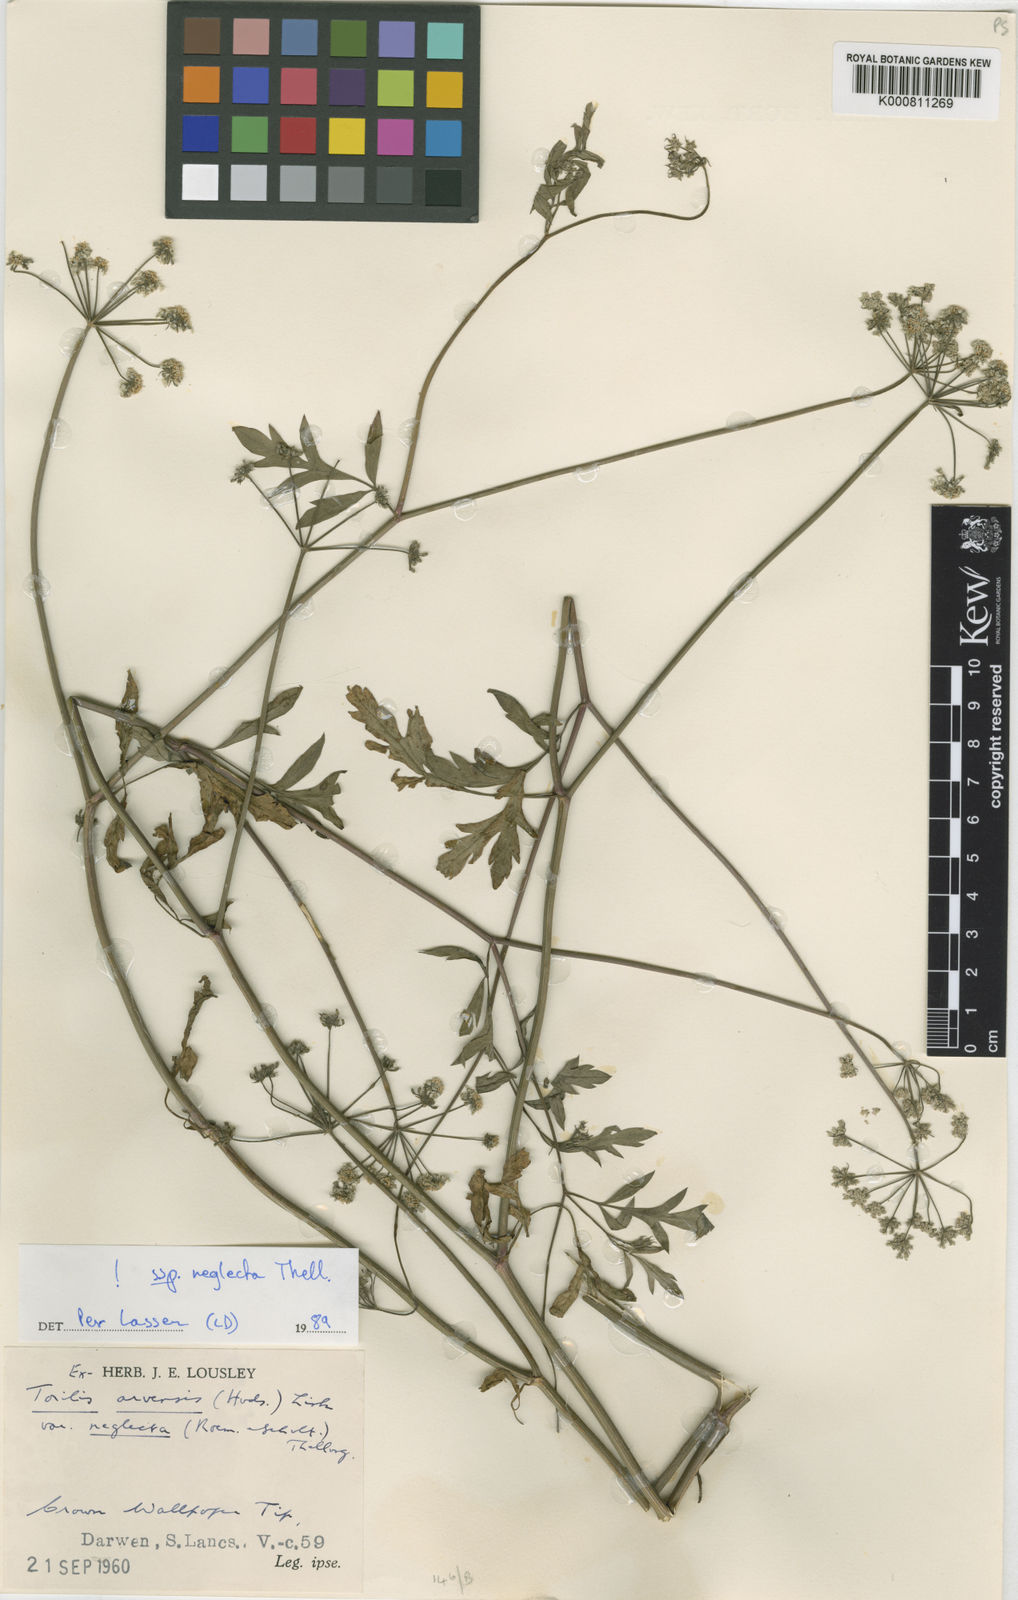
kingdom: Plantae
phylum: Tracheophyta
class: Magnoliopsida
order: Apiales
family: Apiaceae
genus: Torilis
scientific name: Torilis arvensis
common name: Spreading hedge-parsley
